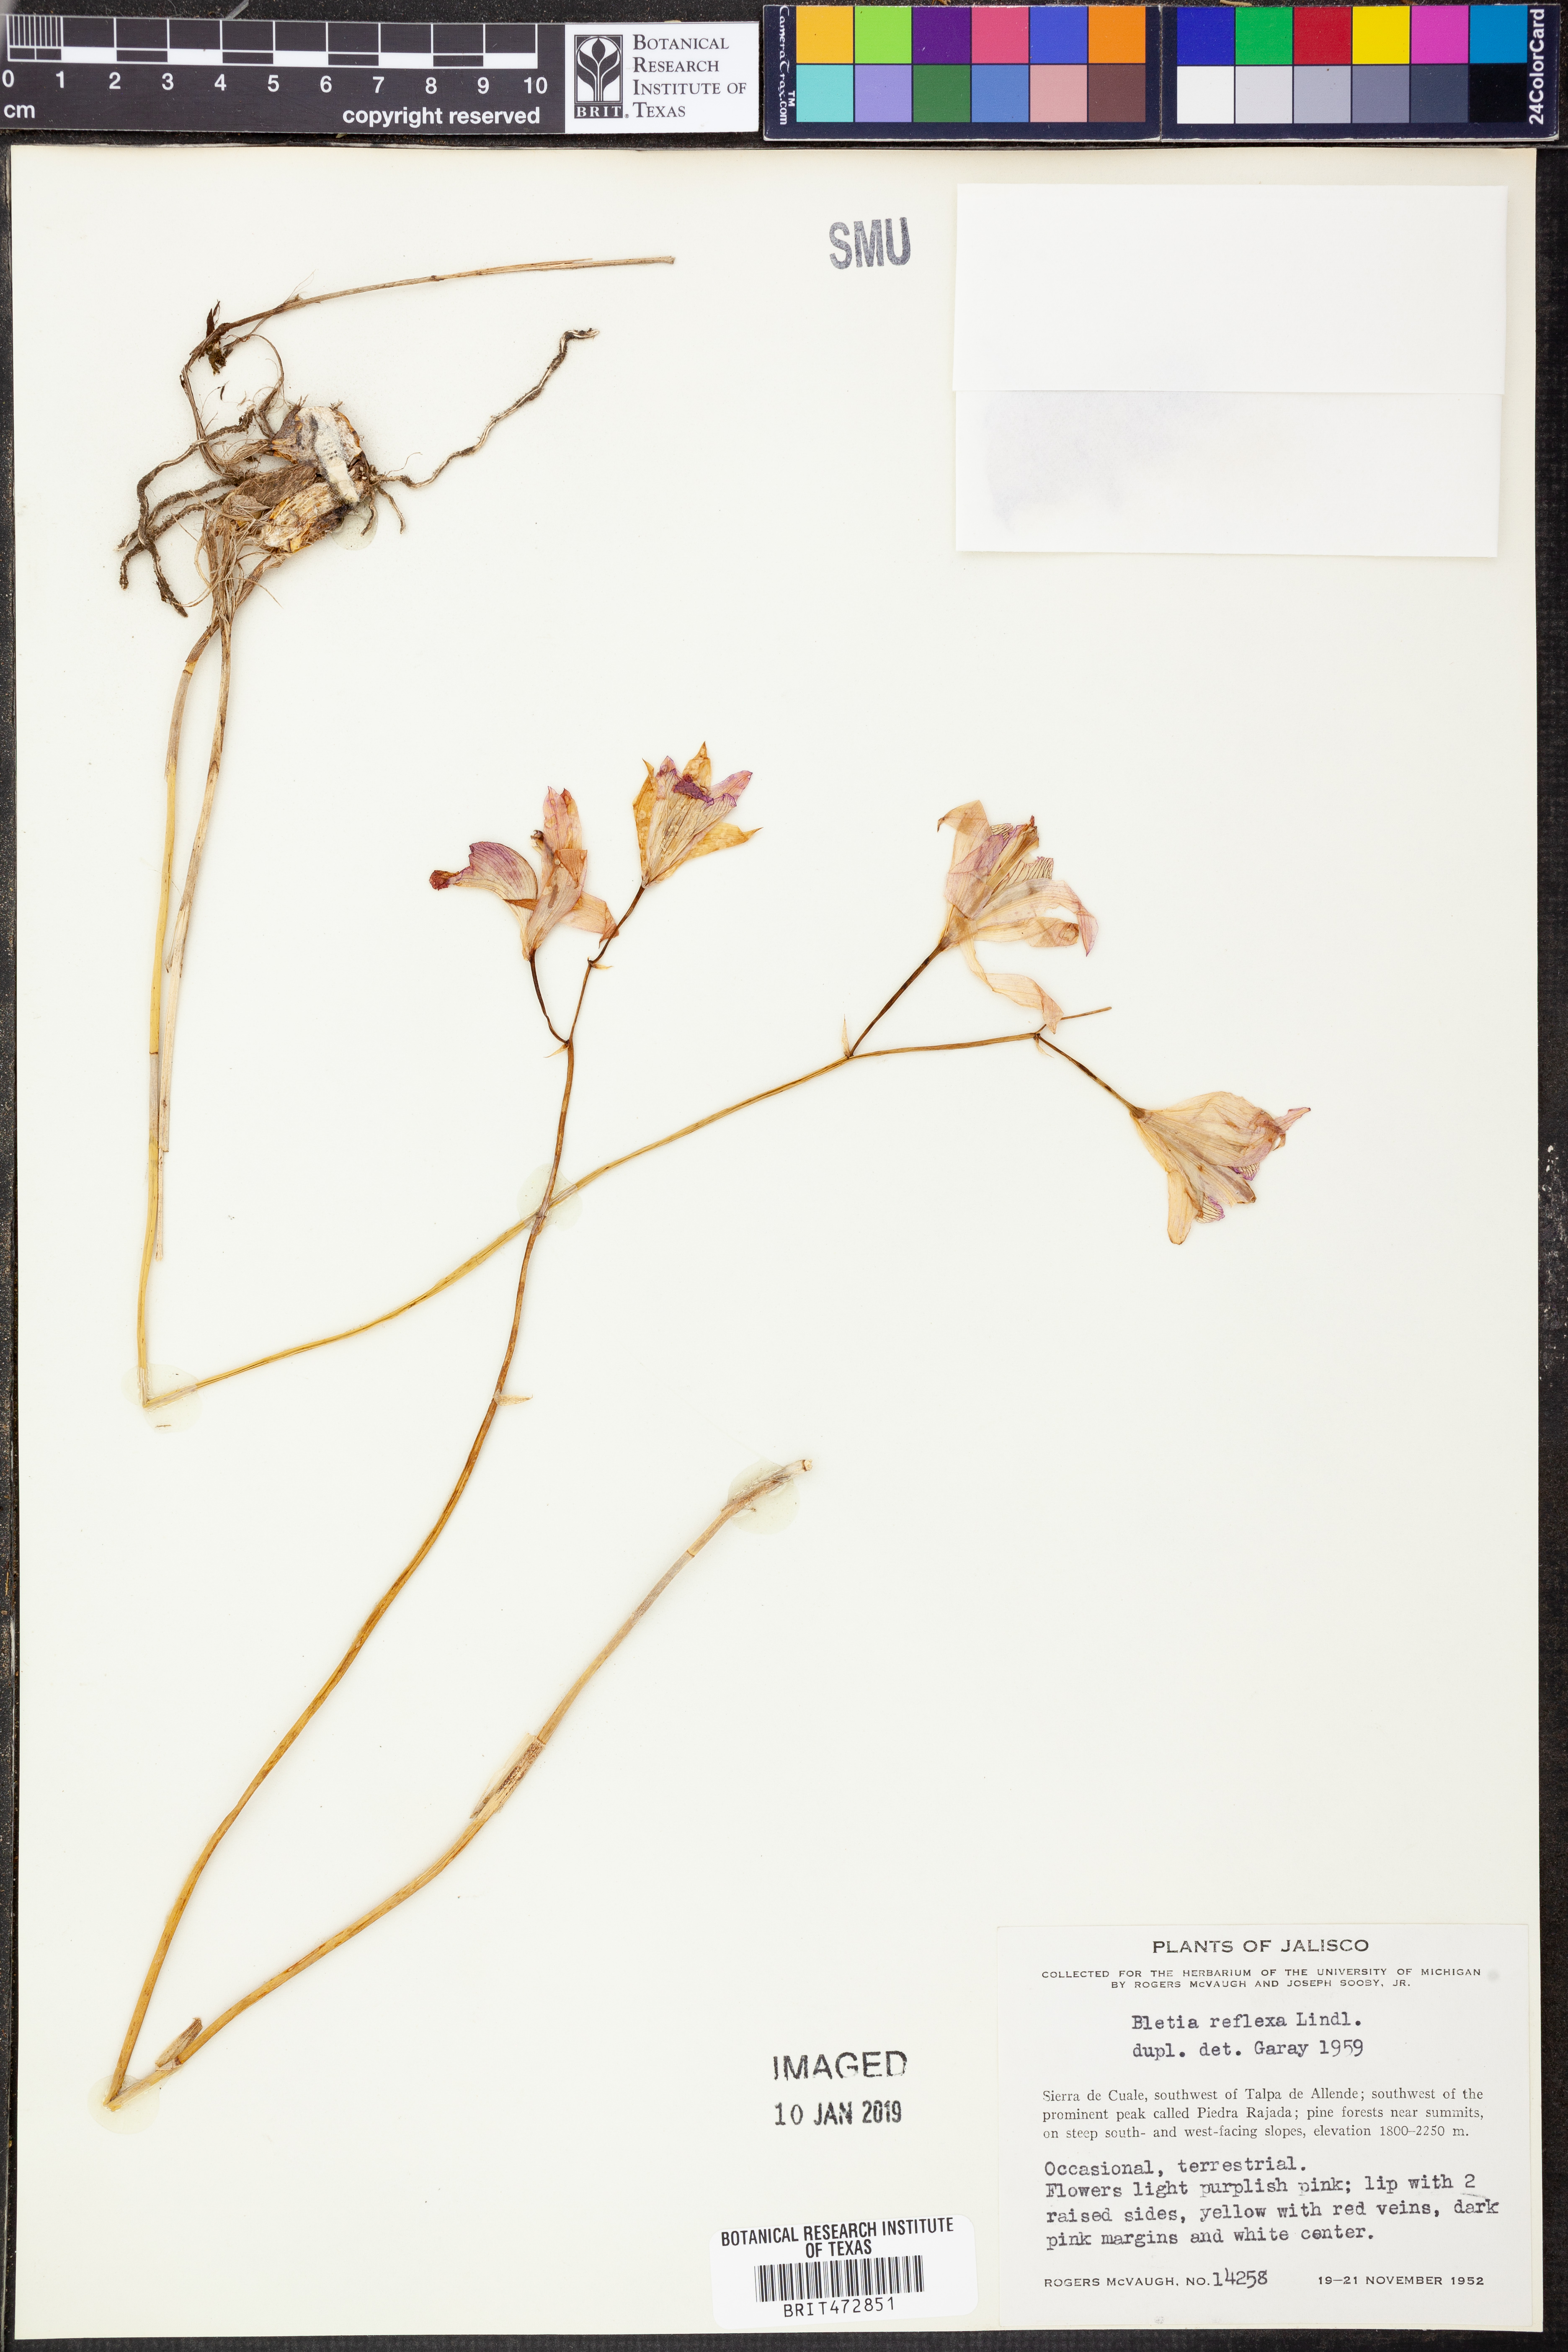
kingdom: Plantae
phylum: Tracheophyta
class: Liliopsida
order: Asparagales
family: Orchidaceae
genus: Bletia
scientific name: Bletia reflexa
